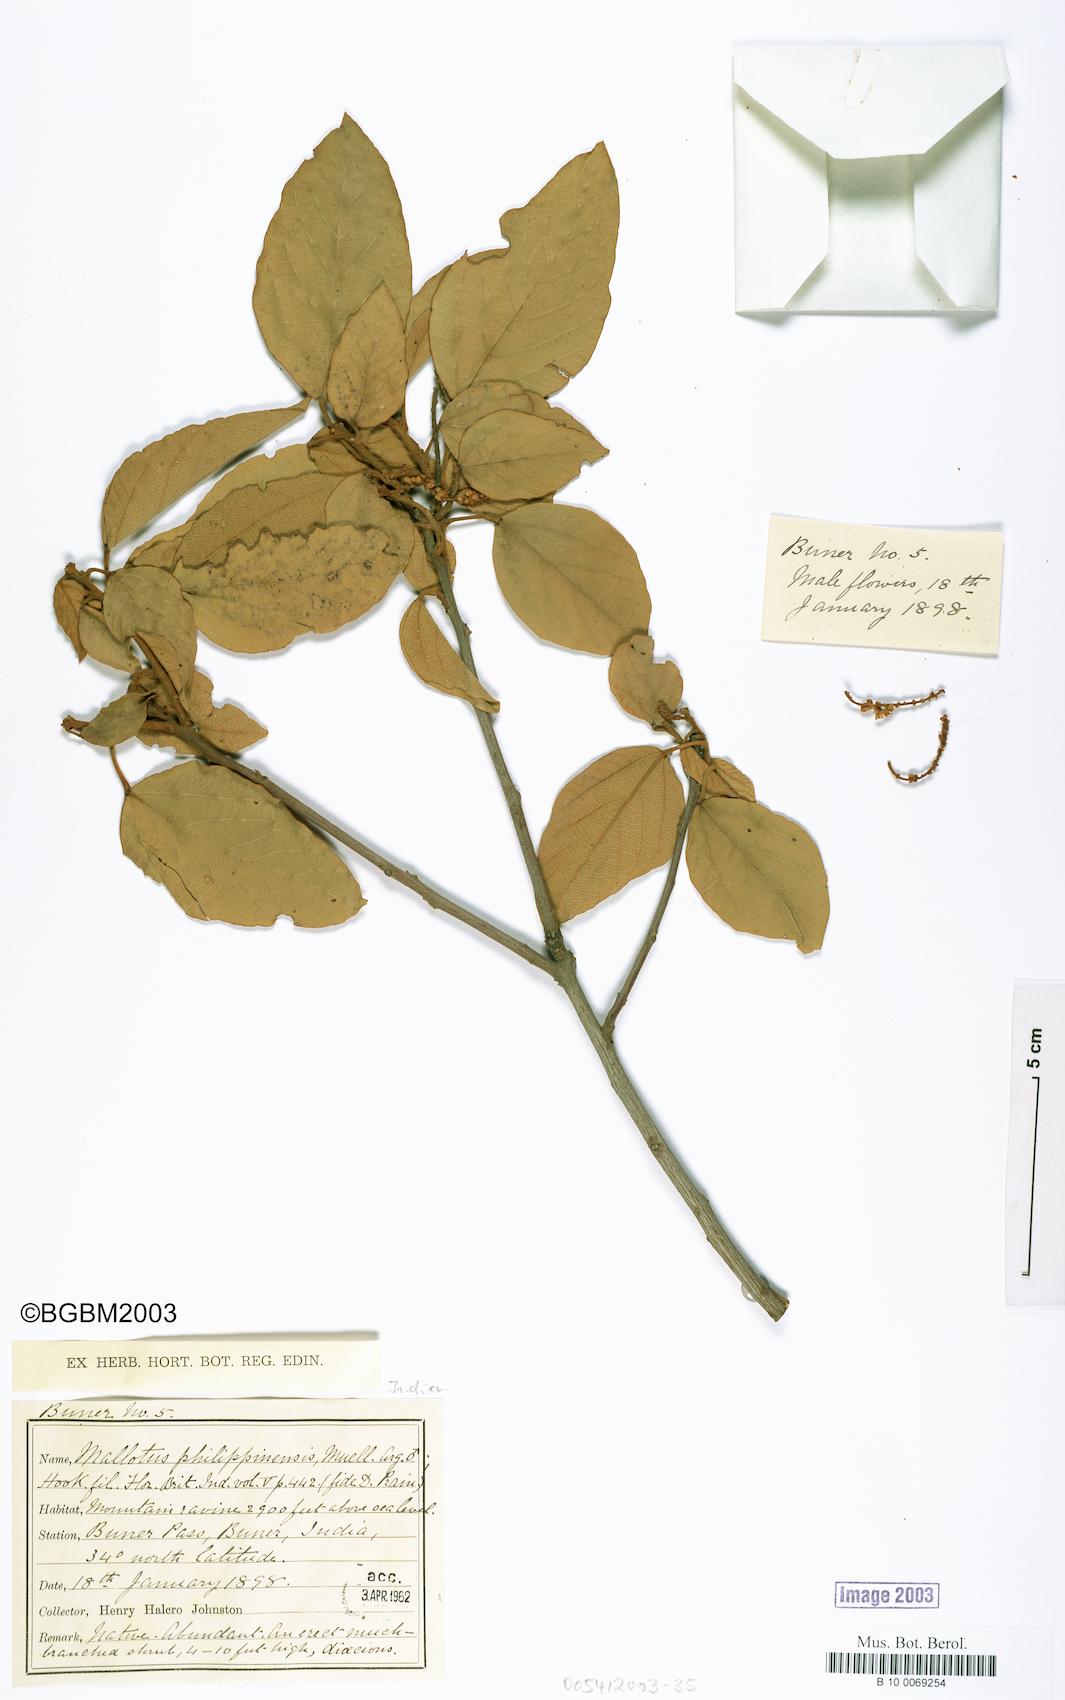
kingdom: Plantae
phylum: Tracheophyta
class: Magnoliopsida
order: Malpighiales
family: Euphorbiaceae
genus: Mallotus
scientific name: Mallotus philippensis
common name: Kamala tree
